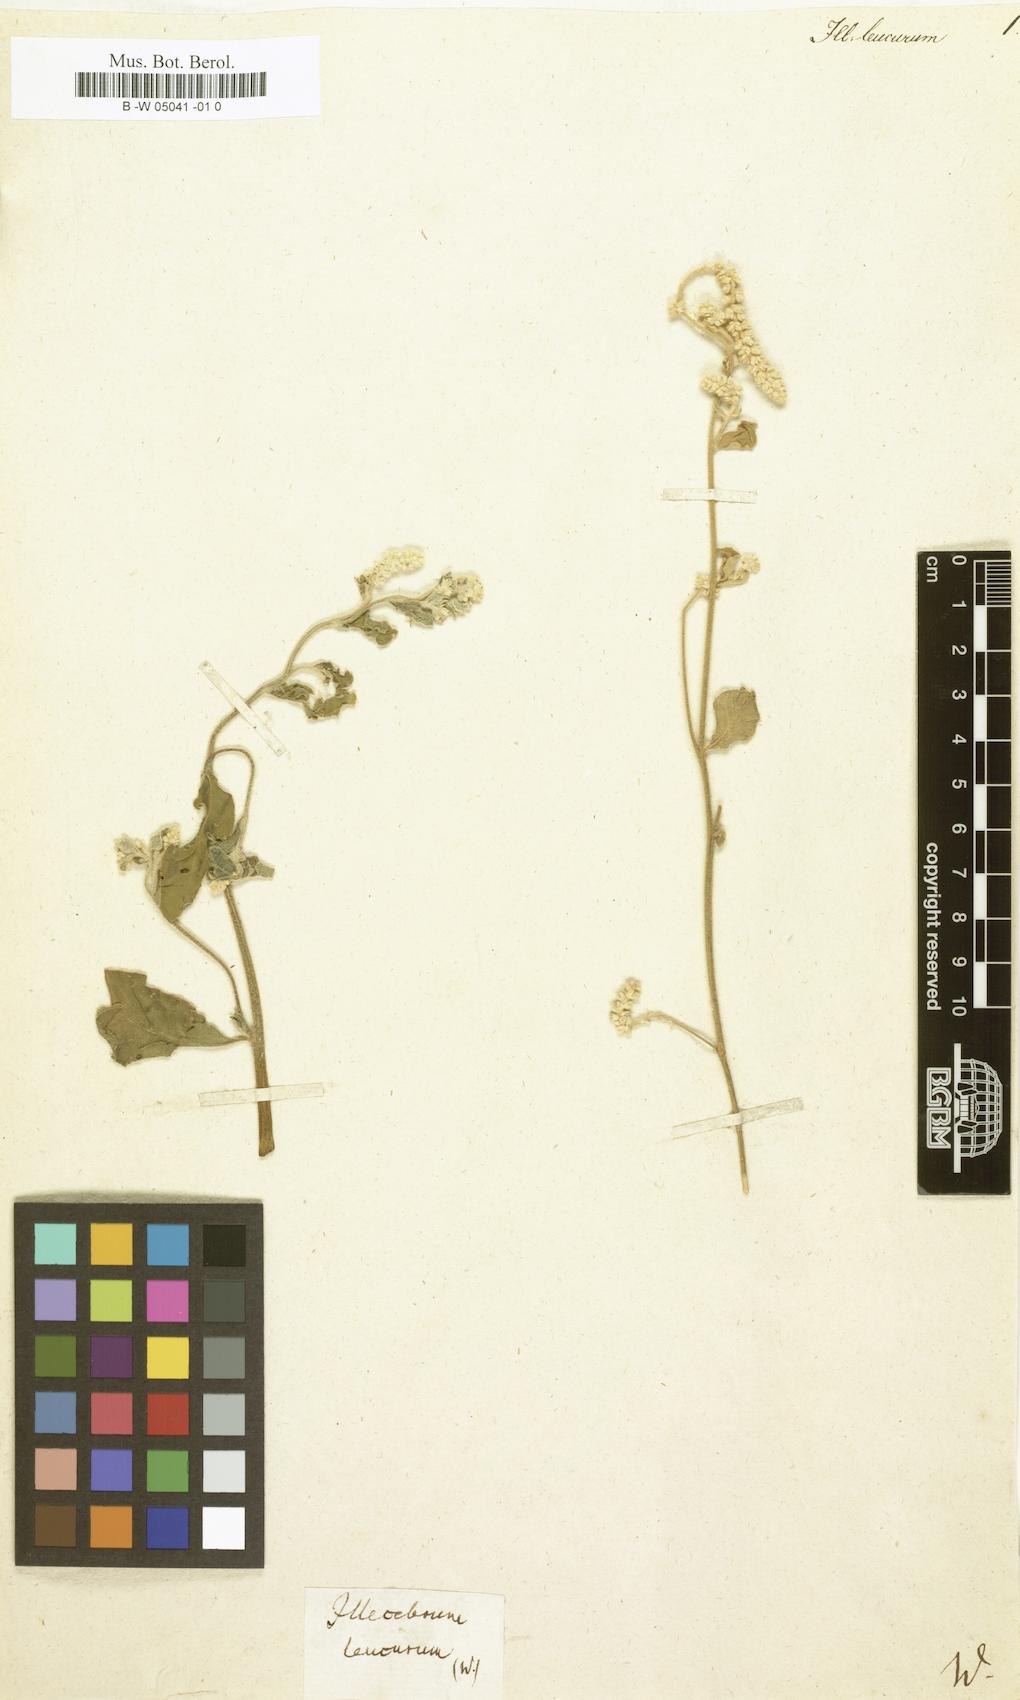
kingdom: Plantae
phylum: Tracheophyta
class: Magnoliopsida
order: Caryophyllales
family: Amaranthaceae
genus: Ouret
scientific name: Ouret leucura
